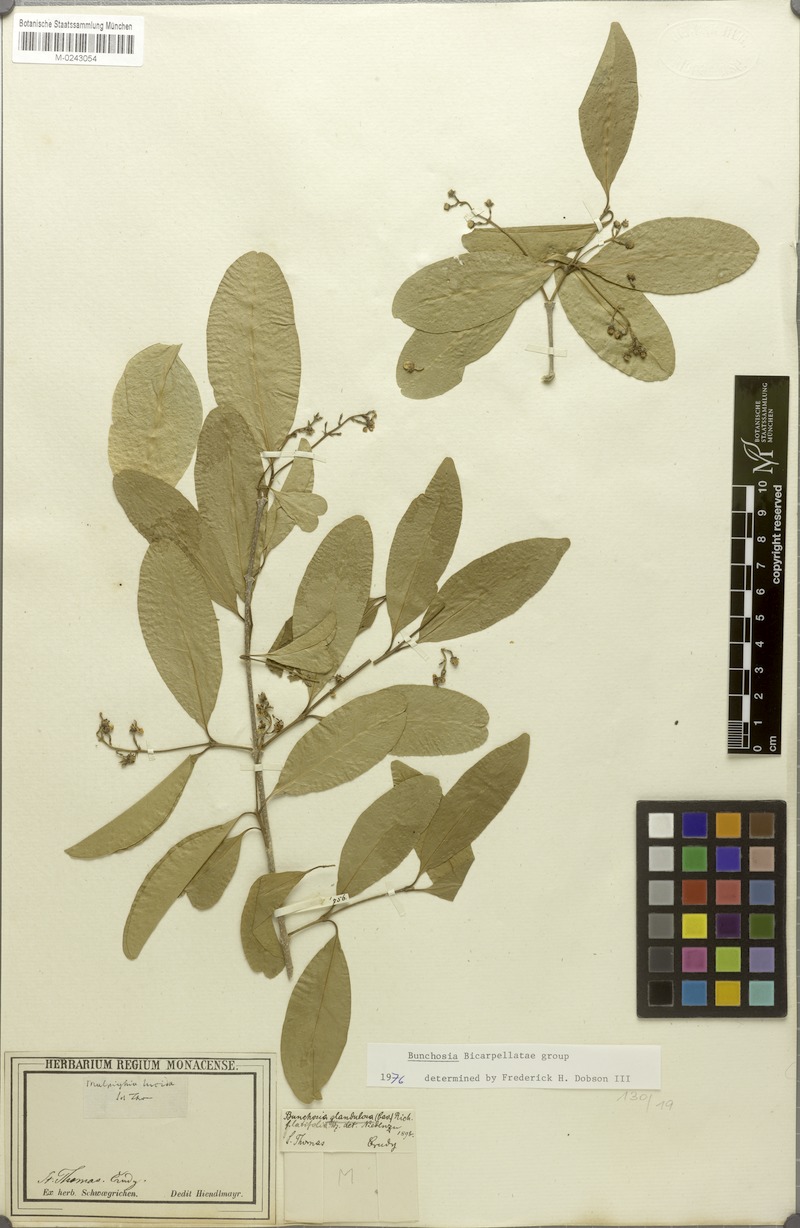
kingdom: Plantae
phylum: Tracheophyta
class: Magnoliopsida
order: Malpighiales
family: Malpighiaceae
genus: Bunchosia
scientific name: Bunchosia glandulosa
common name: Cafe forastero
